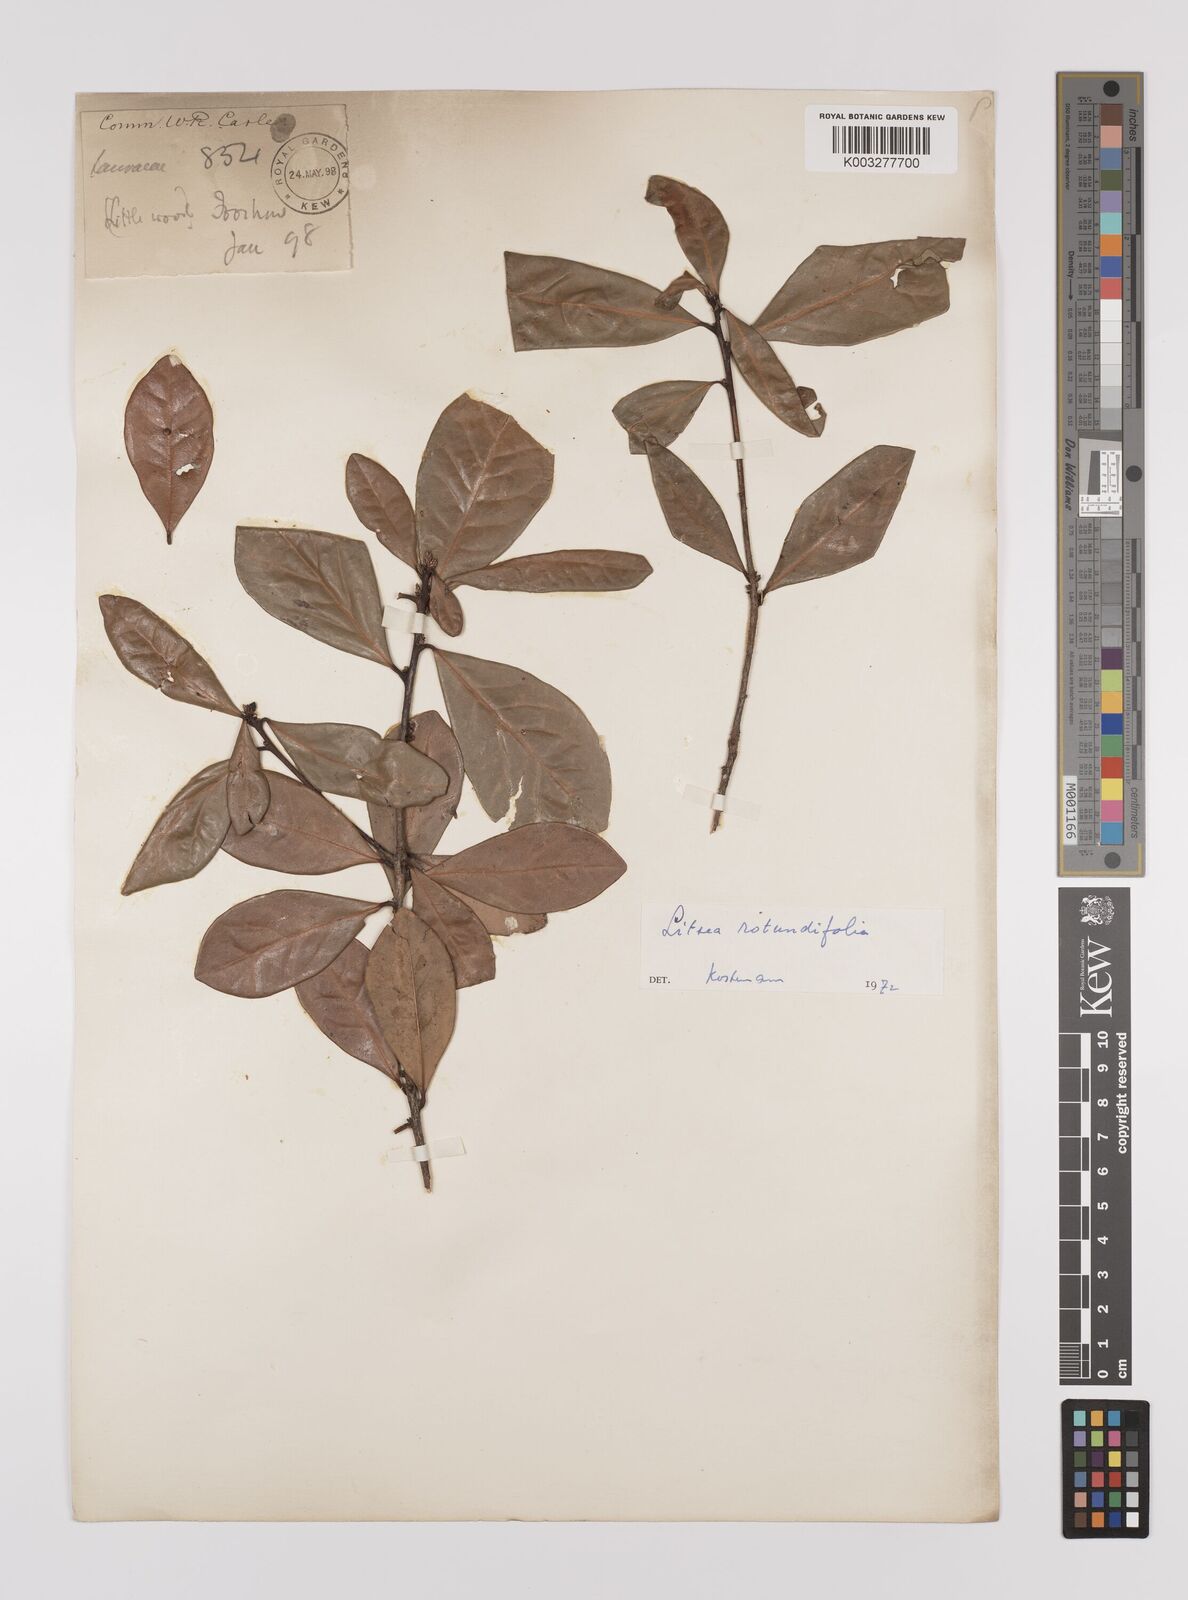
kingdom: Plantae
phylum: Tracheophyta
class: Magnoliopsida
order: Laurales
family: Lauraceae
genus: Litsea
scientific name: Litsea rotundifolia
